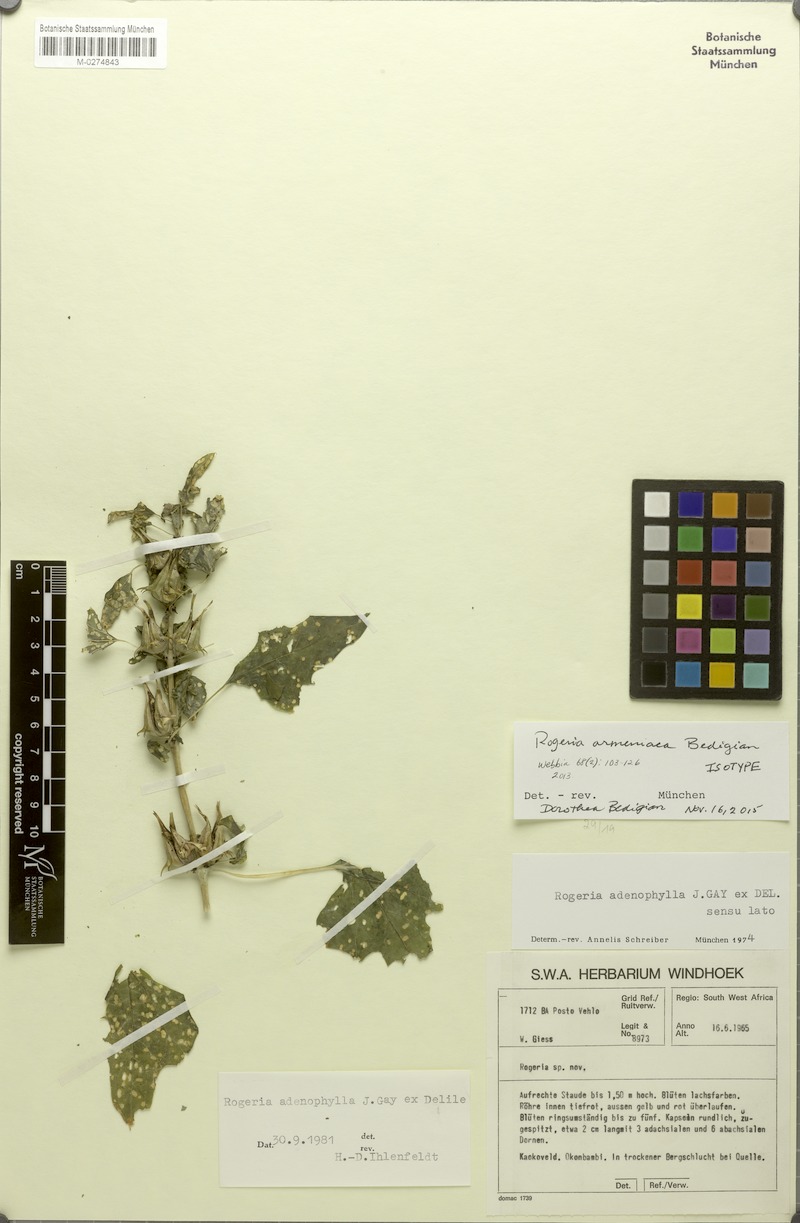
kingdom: Plantae
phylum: Tracheophyta
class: Magnoliopsida
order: Lamiales
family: Pedaliaceae
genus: Rogeria
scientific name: Rogeria adenophylla
